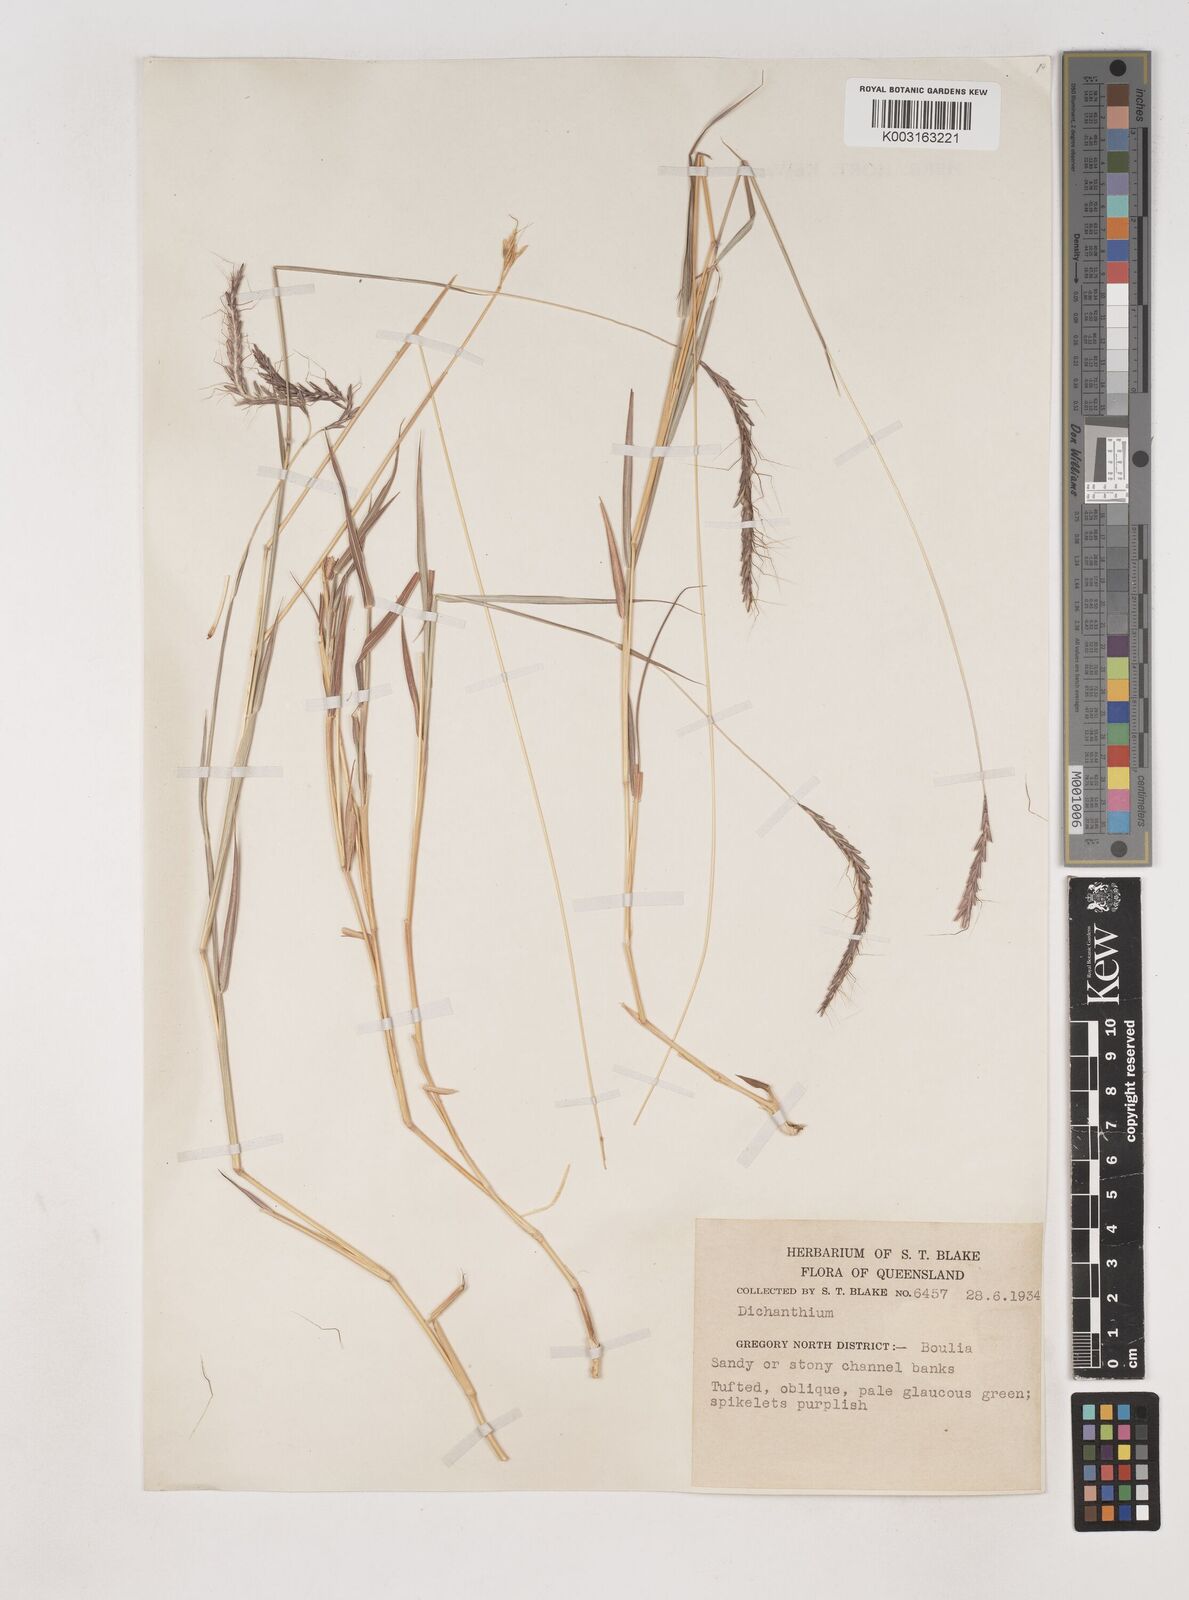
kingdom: Plantae
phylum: Tracheophyta
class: Liliopsida
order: Poales
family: Poaceae
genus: Dichanthium
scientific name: Dichanthium fecundum
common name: Bundle-bundle
